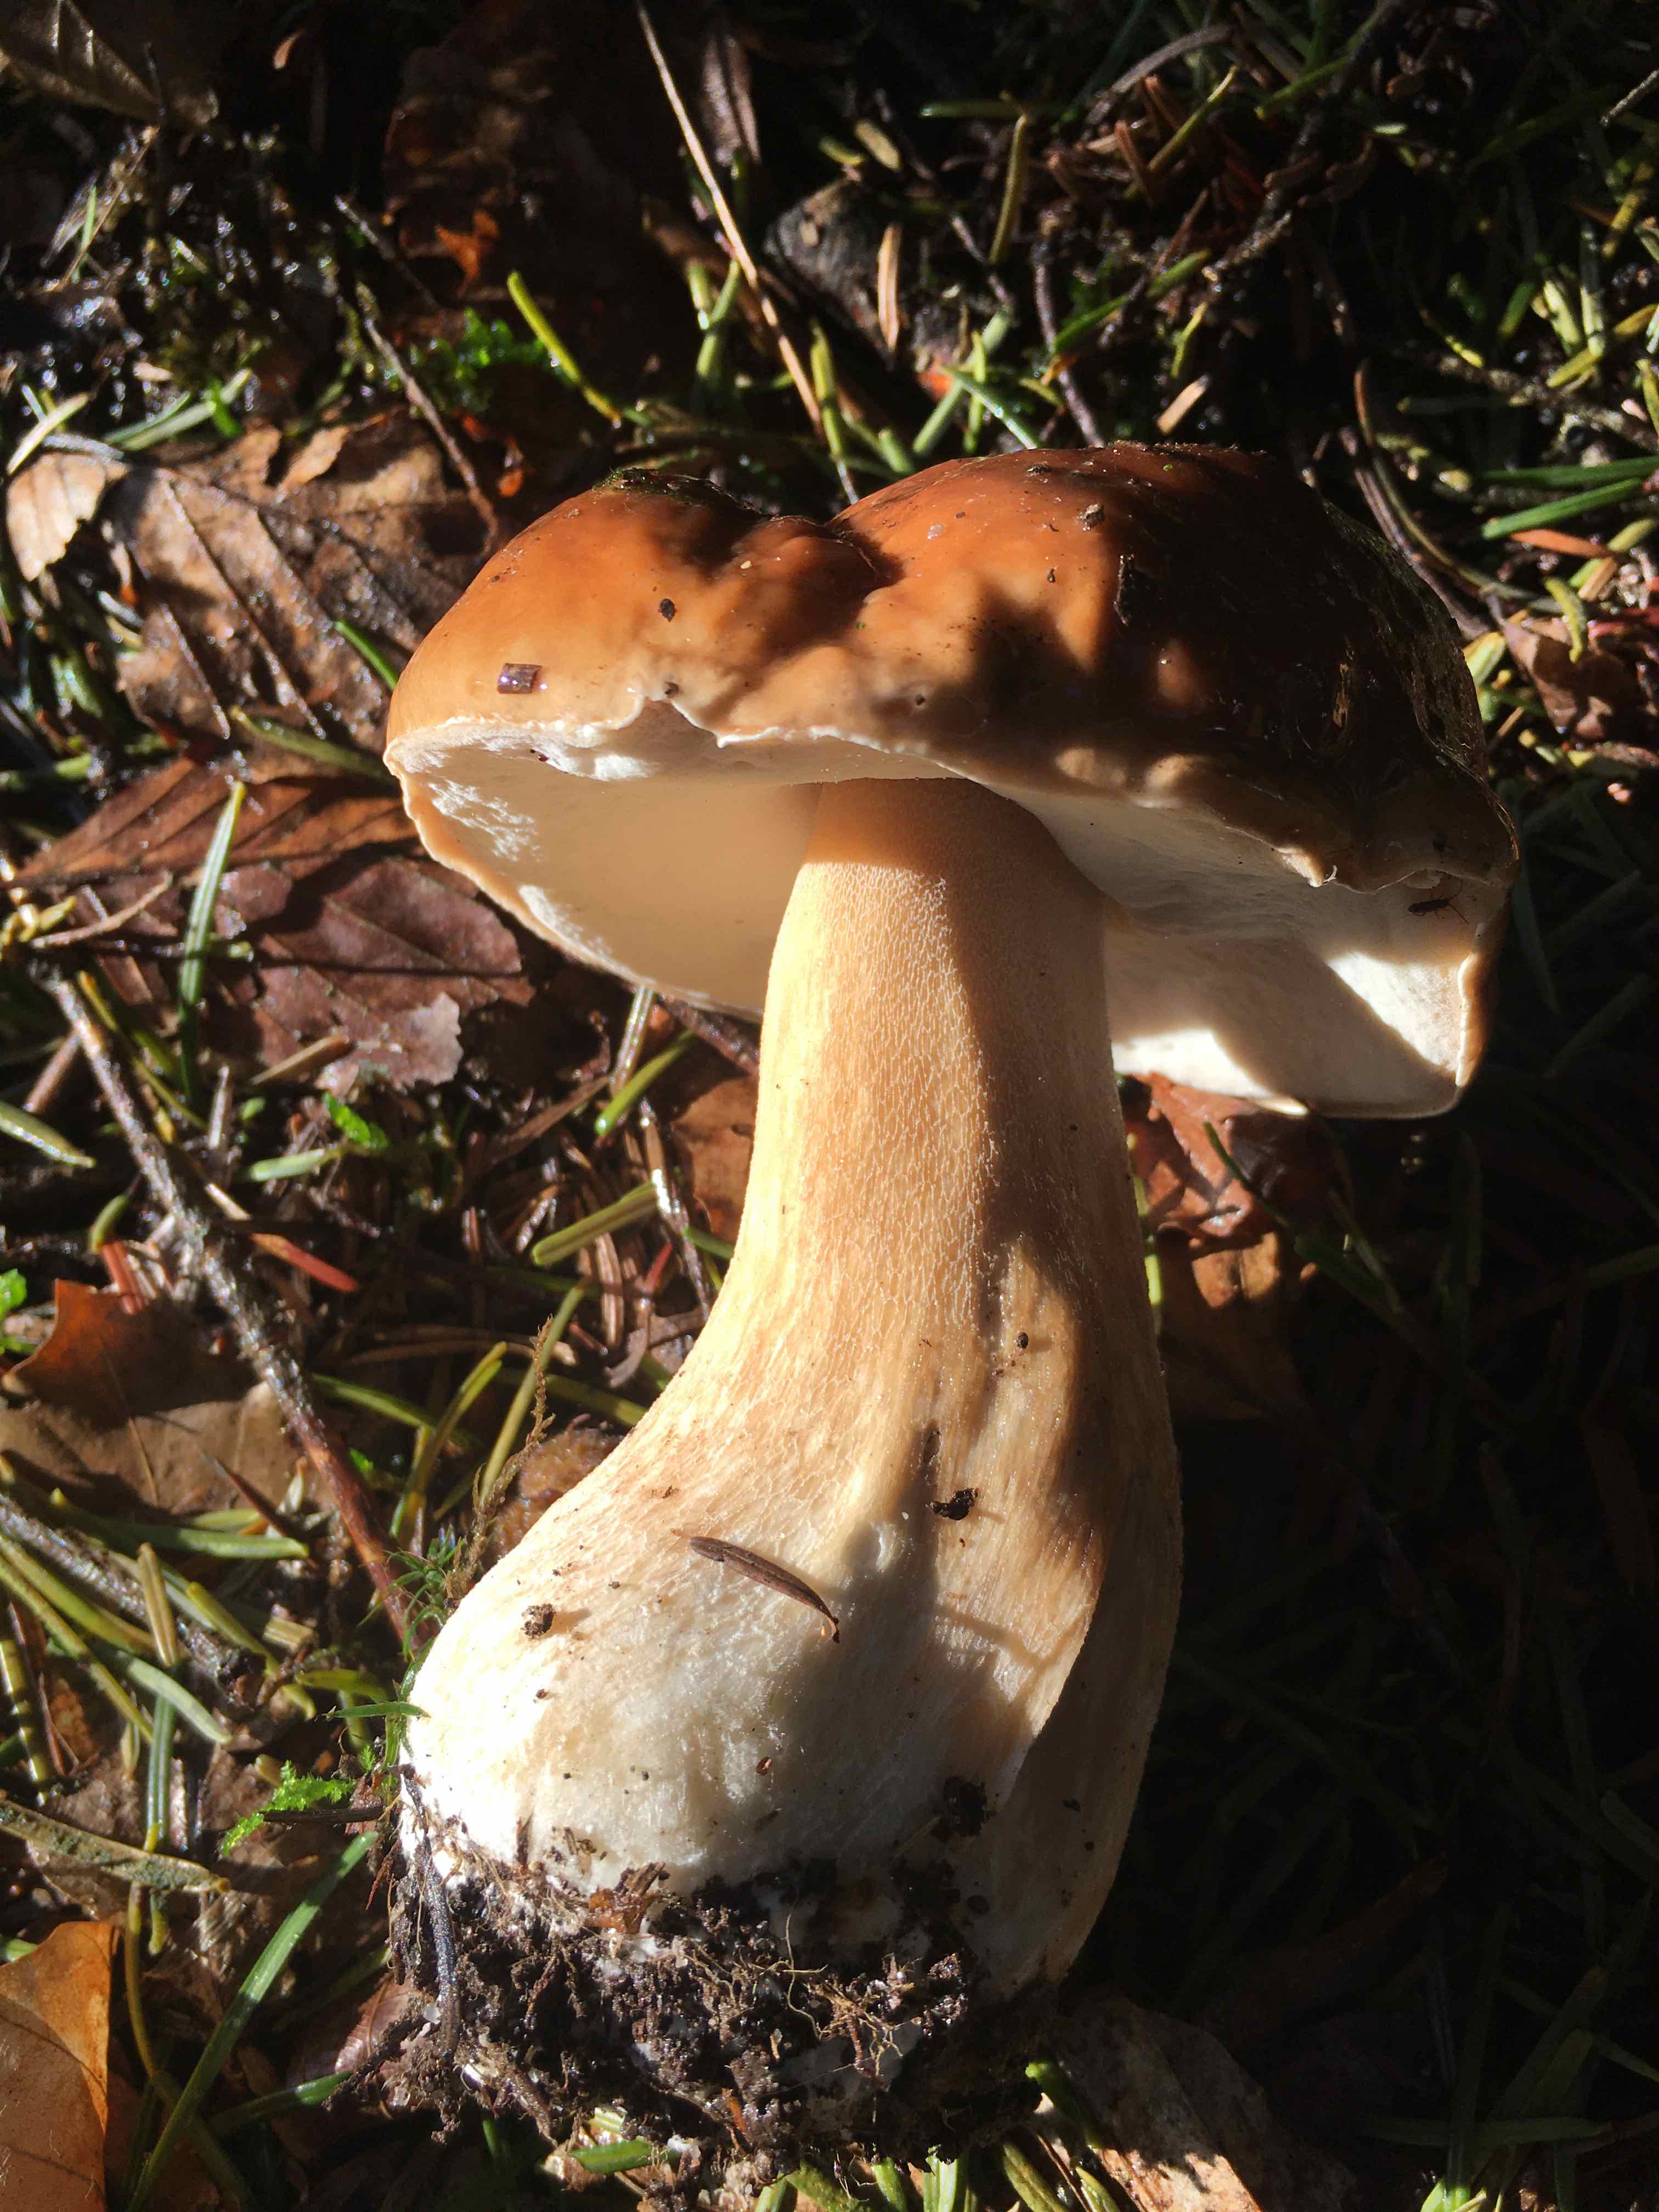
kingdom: Fungi
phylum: Basidiomycota
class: Agaricomycetes
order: Boletales
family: Boletaceae
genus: Boletus
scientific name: Boletus edulis
